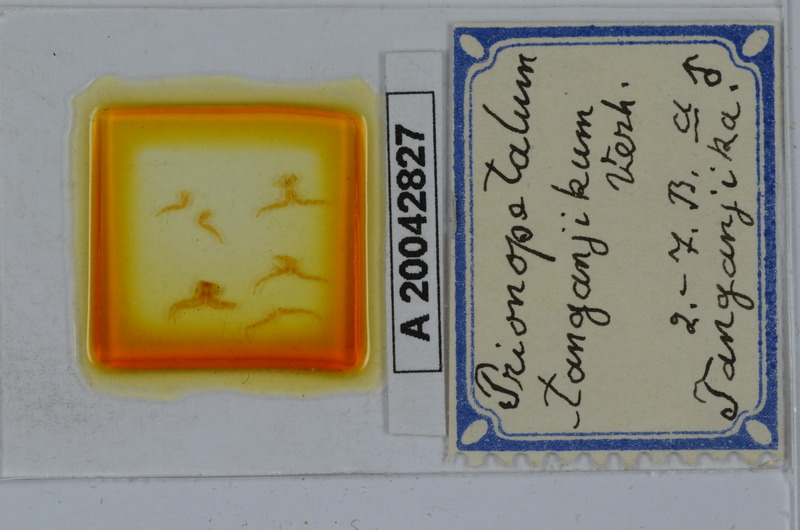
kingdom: Animalia
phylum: Arthropoda
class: Diplopoda
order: Spirostreptida
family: Odontopygidae
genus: Prionopetalum
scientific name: Prionopetalum tanganjikum
